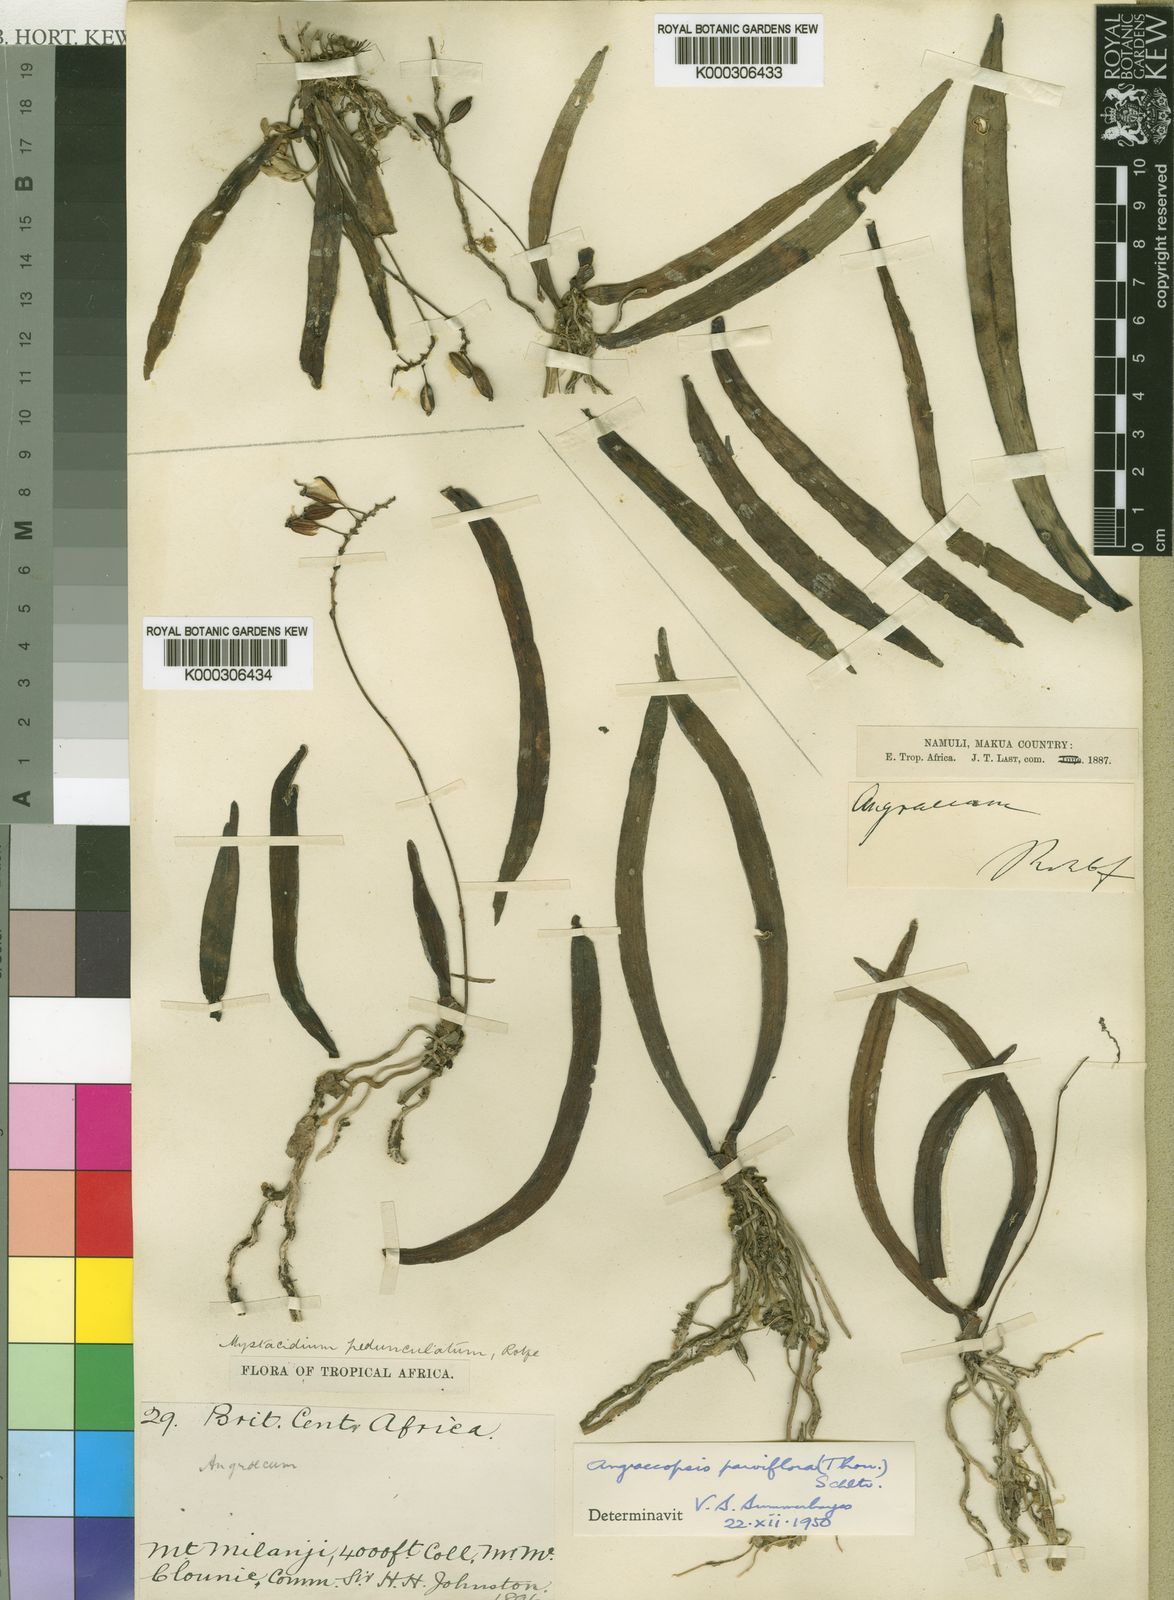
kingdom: Plantae
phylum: Tracheophyta
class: Liliopsida
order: Asparagales
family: Orchidaceae
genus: Angraecopsis
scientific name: Angraecopsis parviflora
